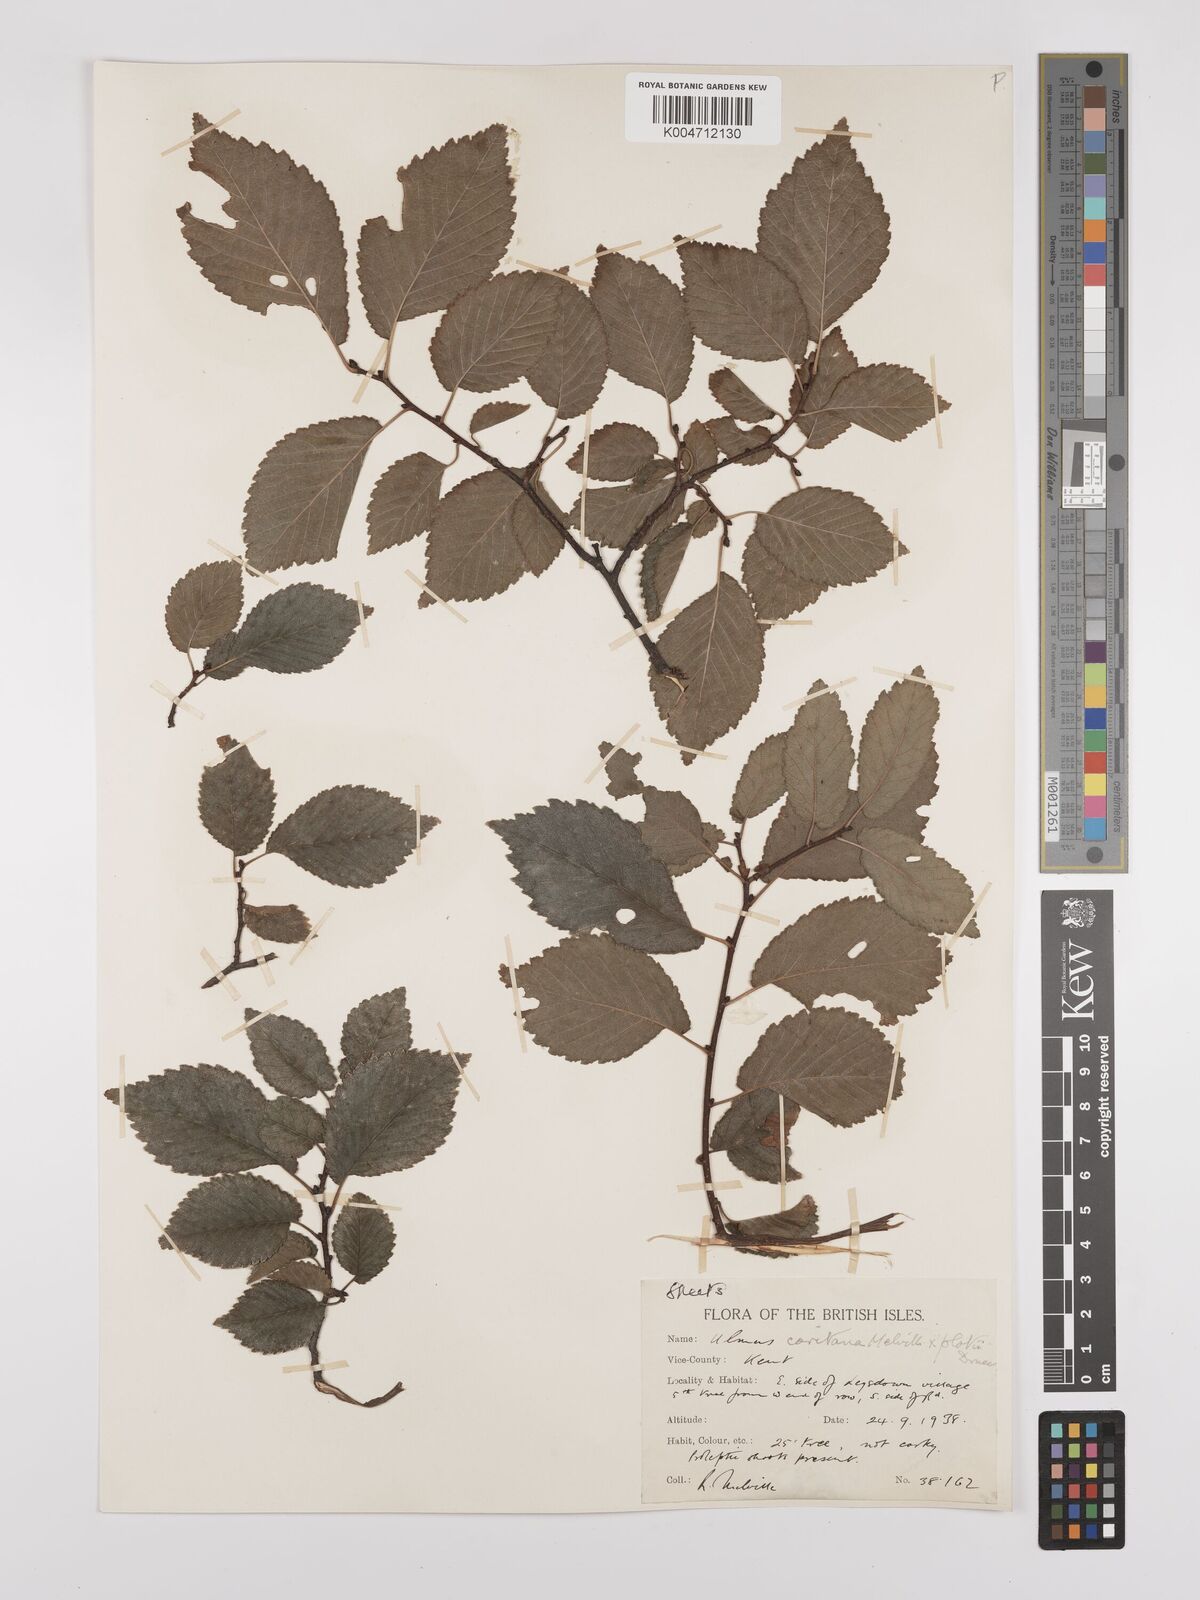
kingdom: Plantae
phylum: Tracheophyta
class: Magnoliopsida
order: Rosales
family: Ulmaceae
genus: Ulmus
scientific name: Ulmus minor
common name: Small-leaved elm
